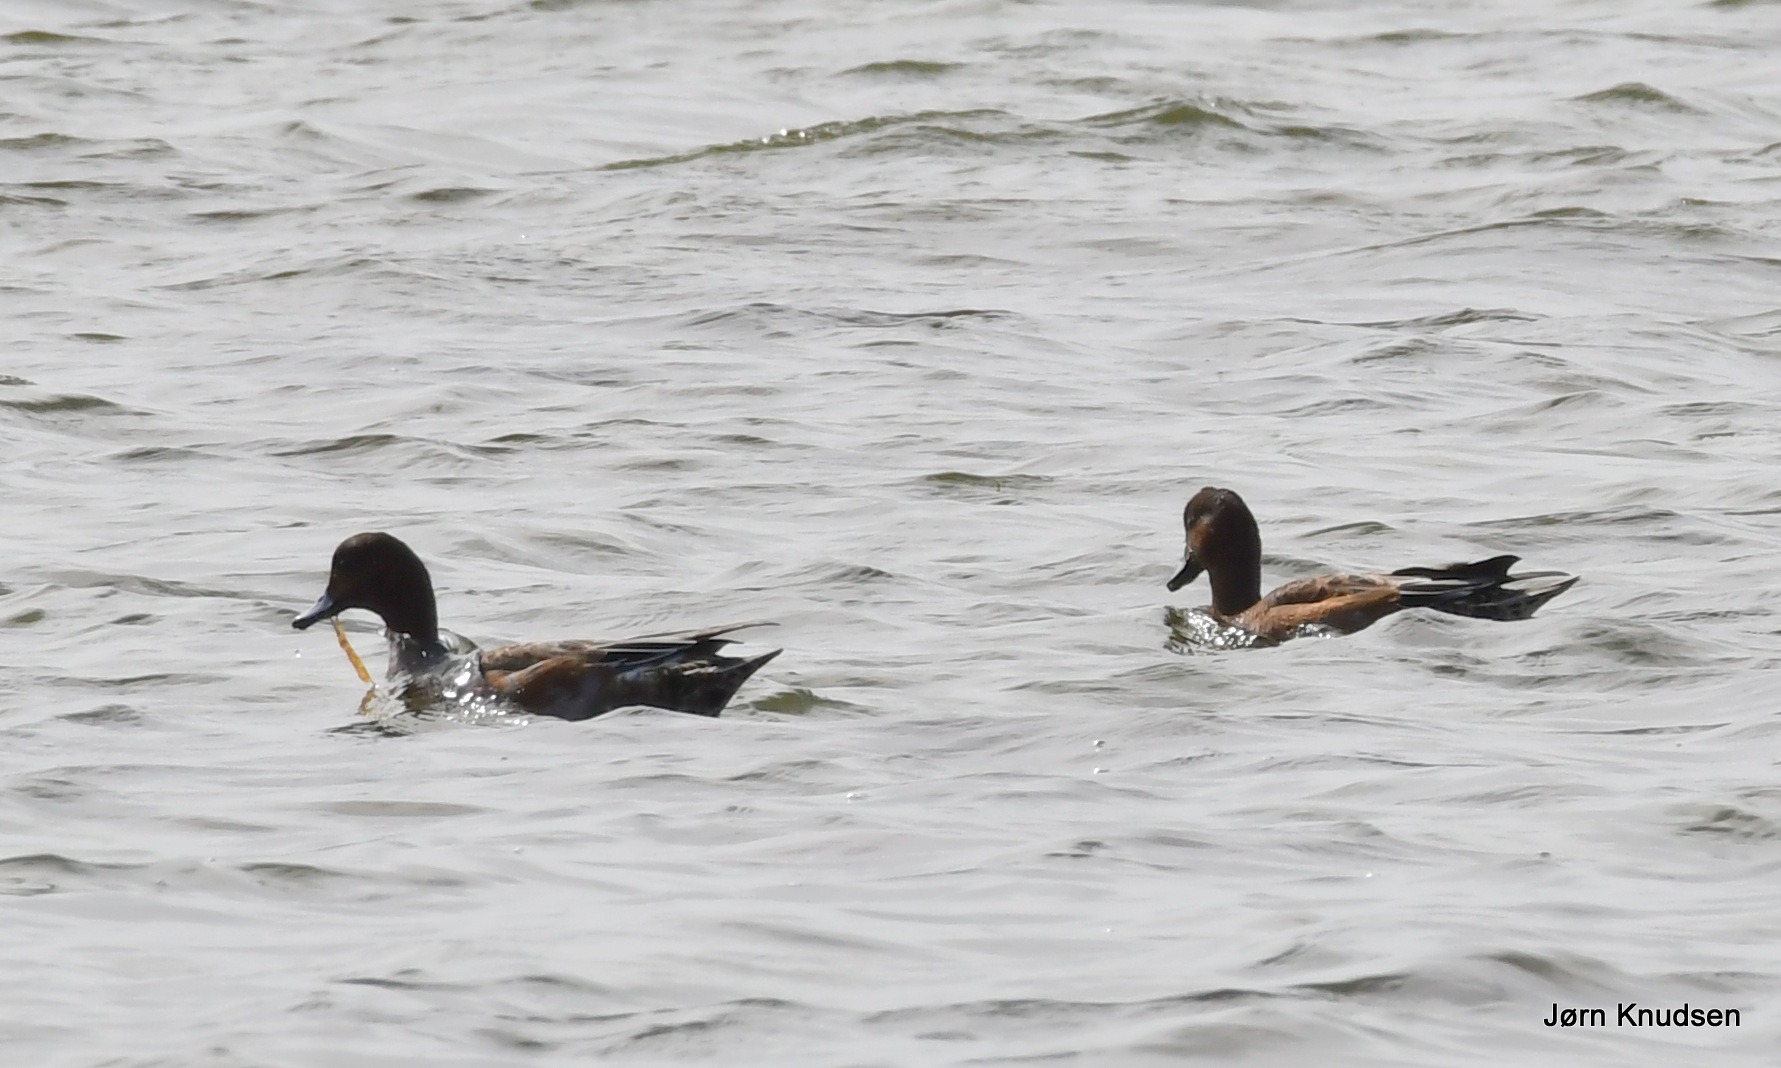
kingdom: Animalia
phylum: Chordata
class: Aves
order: Anseriformes
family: Anatidae
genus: Mareca
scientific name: Mareca penelope
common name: Pibeand
